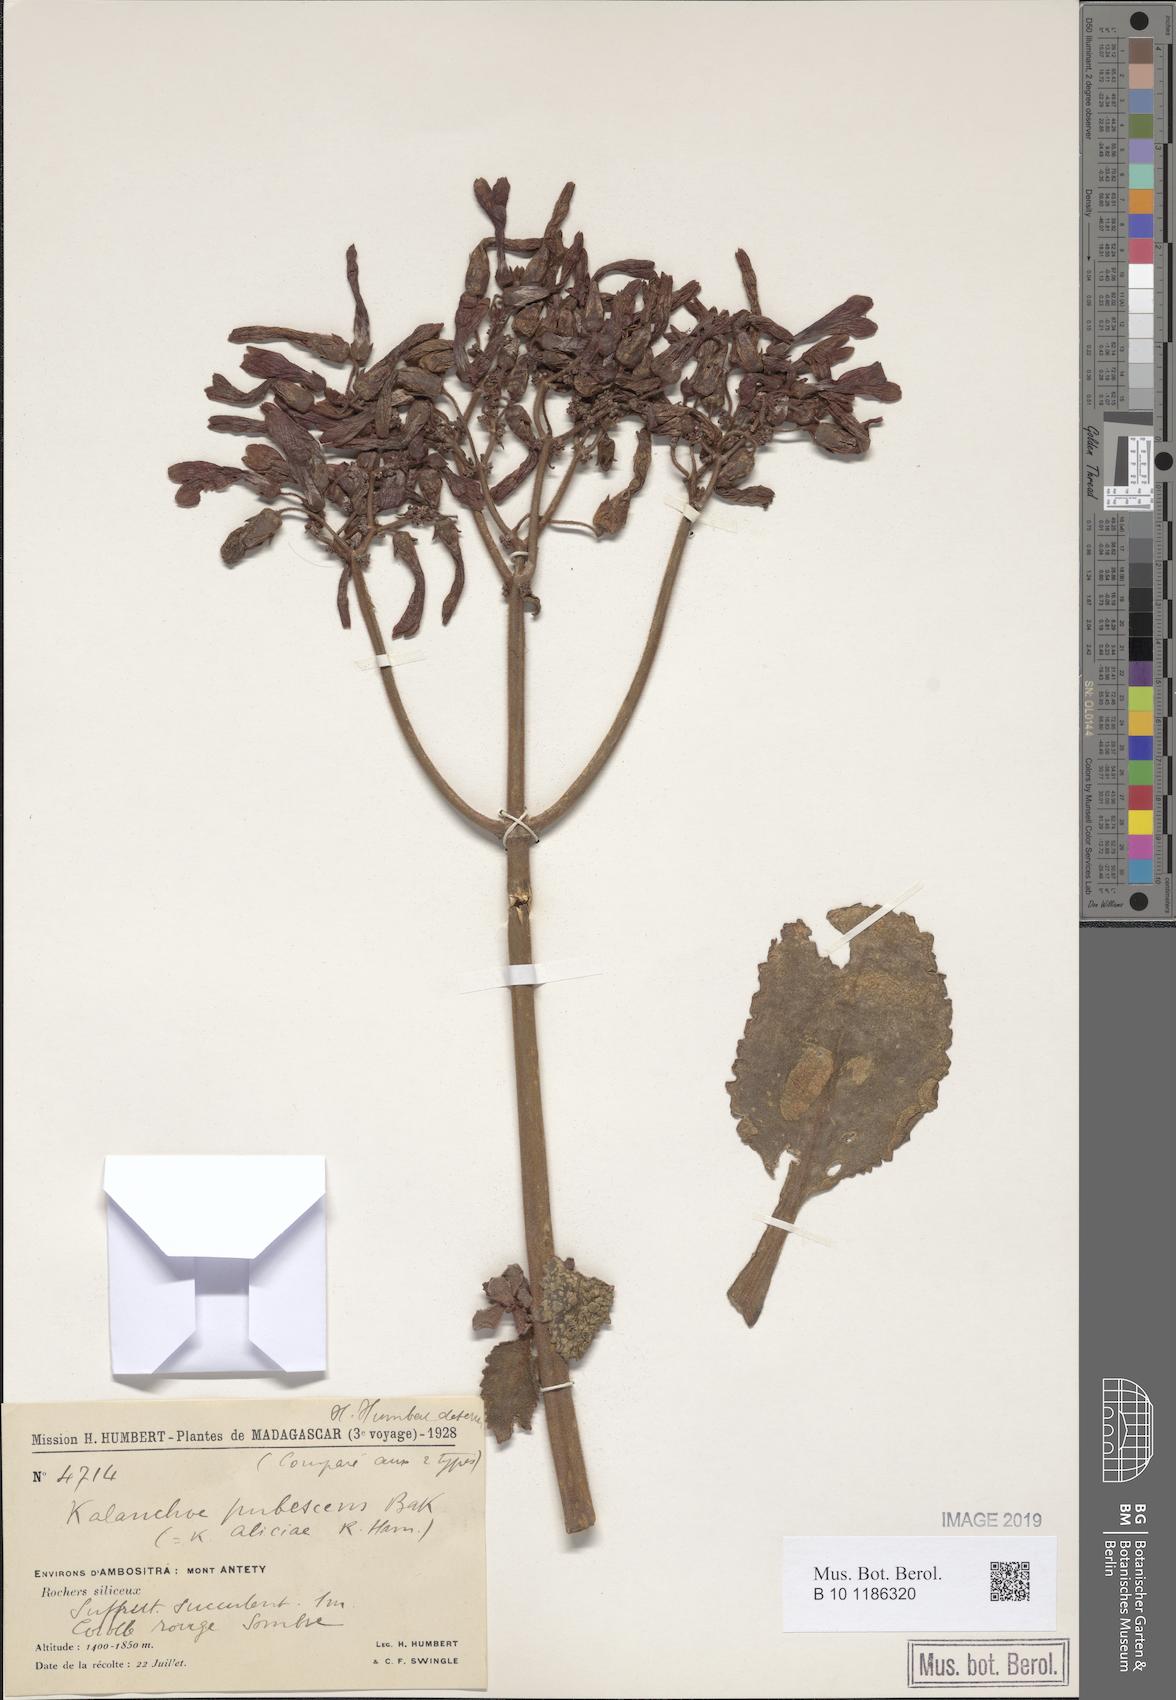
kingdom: Plantae
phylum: Tracheophyta
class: Magnoliopsida
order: Saxifragales
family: Crassulaceae
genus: Kalanchoe
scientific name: Kalanchoe pubescens
